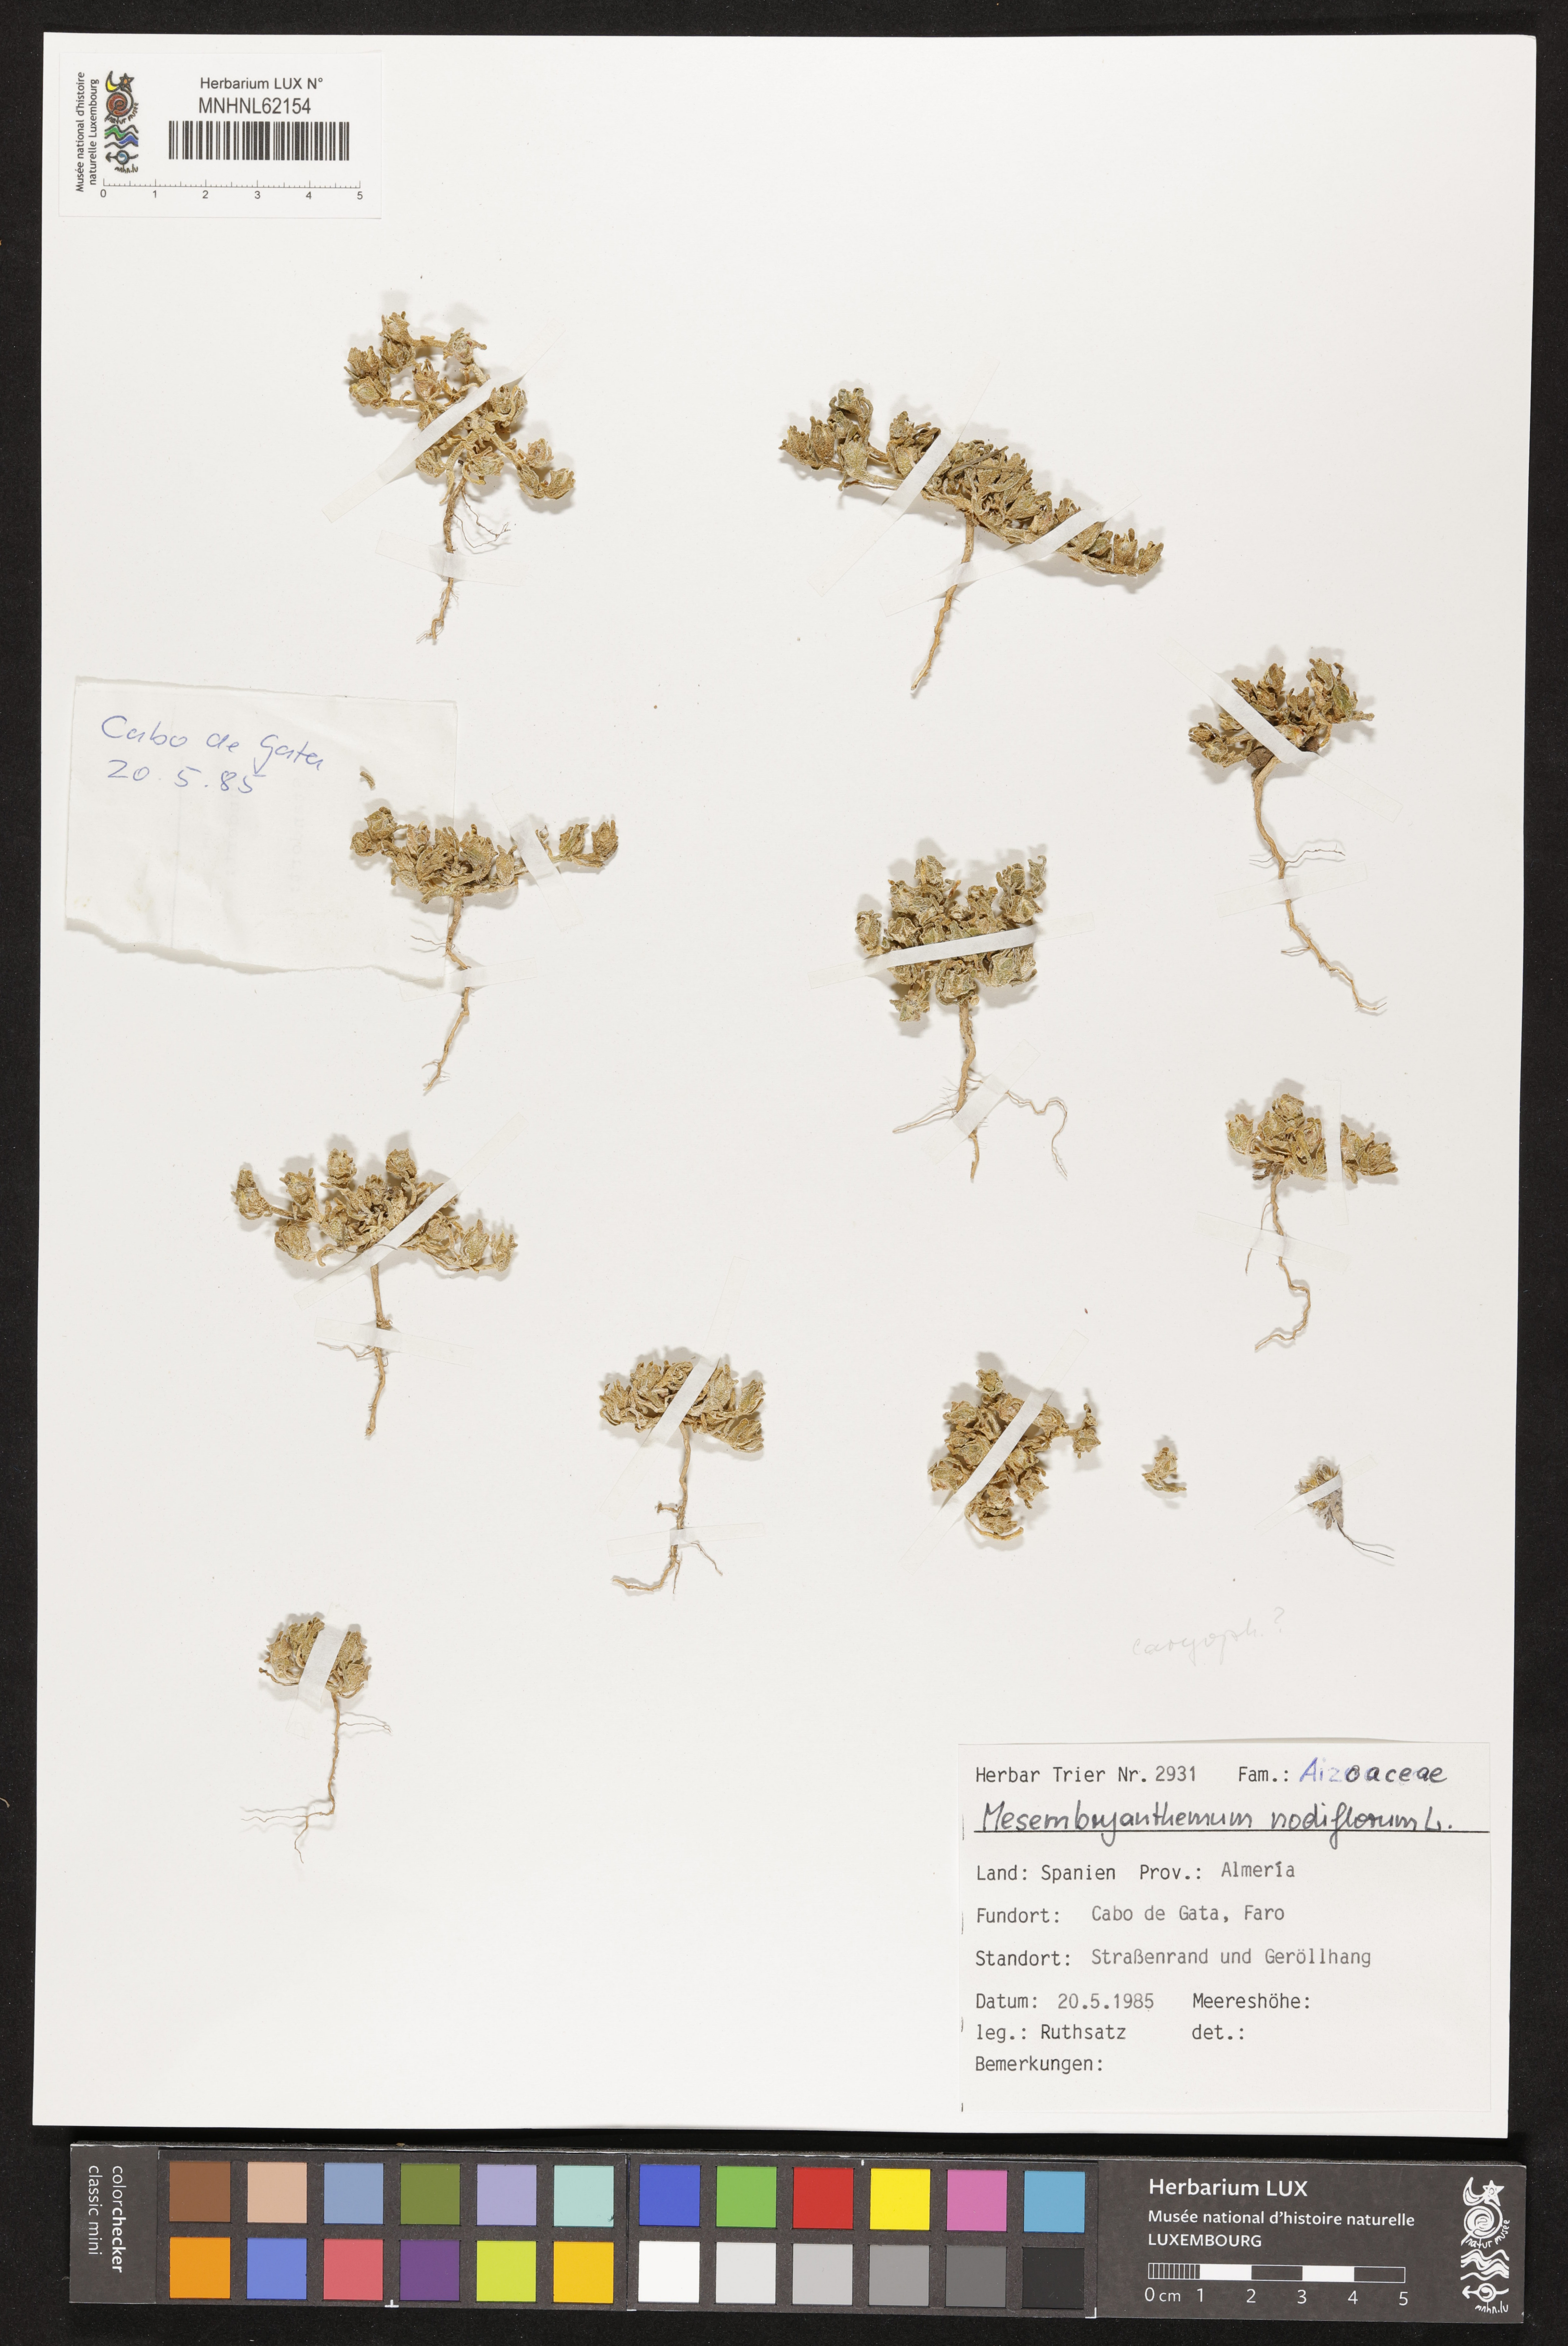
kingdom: Plantae
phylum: Tracheophyta
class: Magnoliopsida
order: Caryophyllales
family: Aizoaceae
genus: Mesembryanthemum
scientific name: Mesembryanthemum nodiflorum
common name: Slenderleaf iceplant
